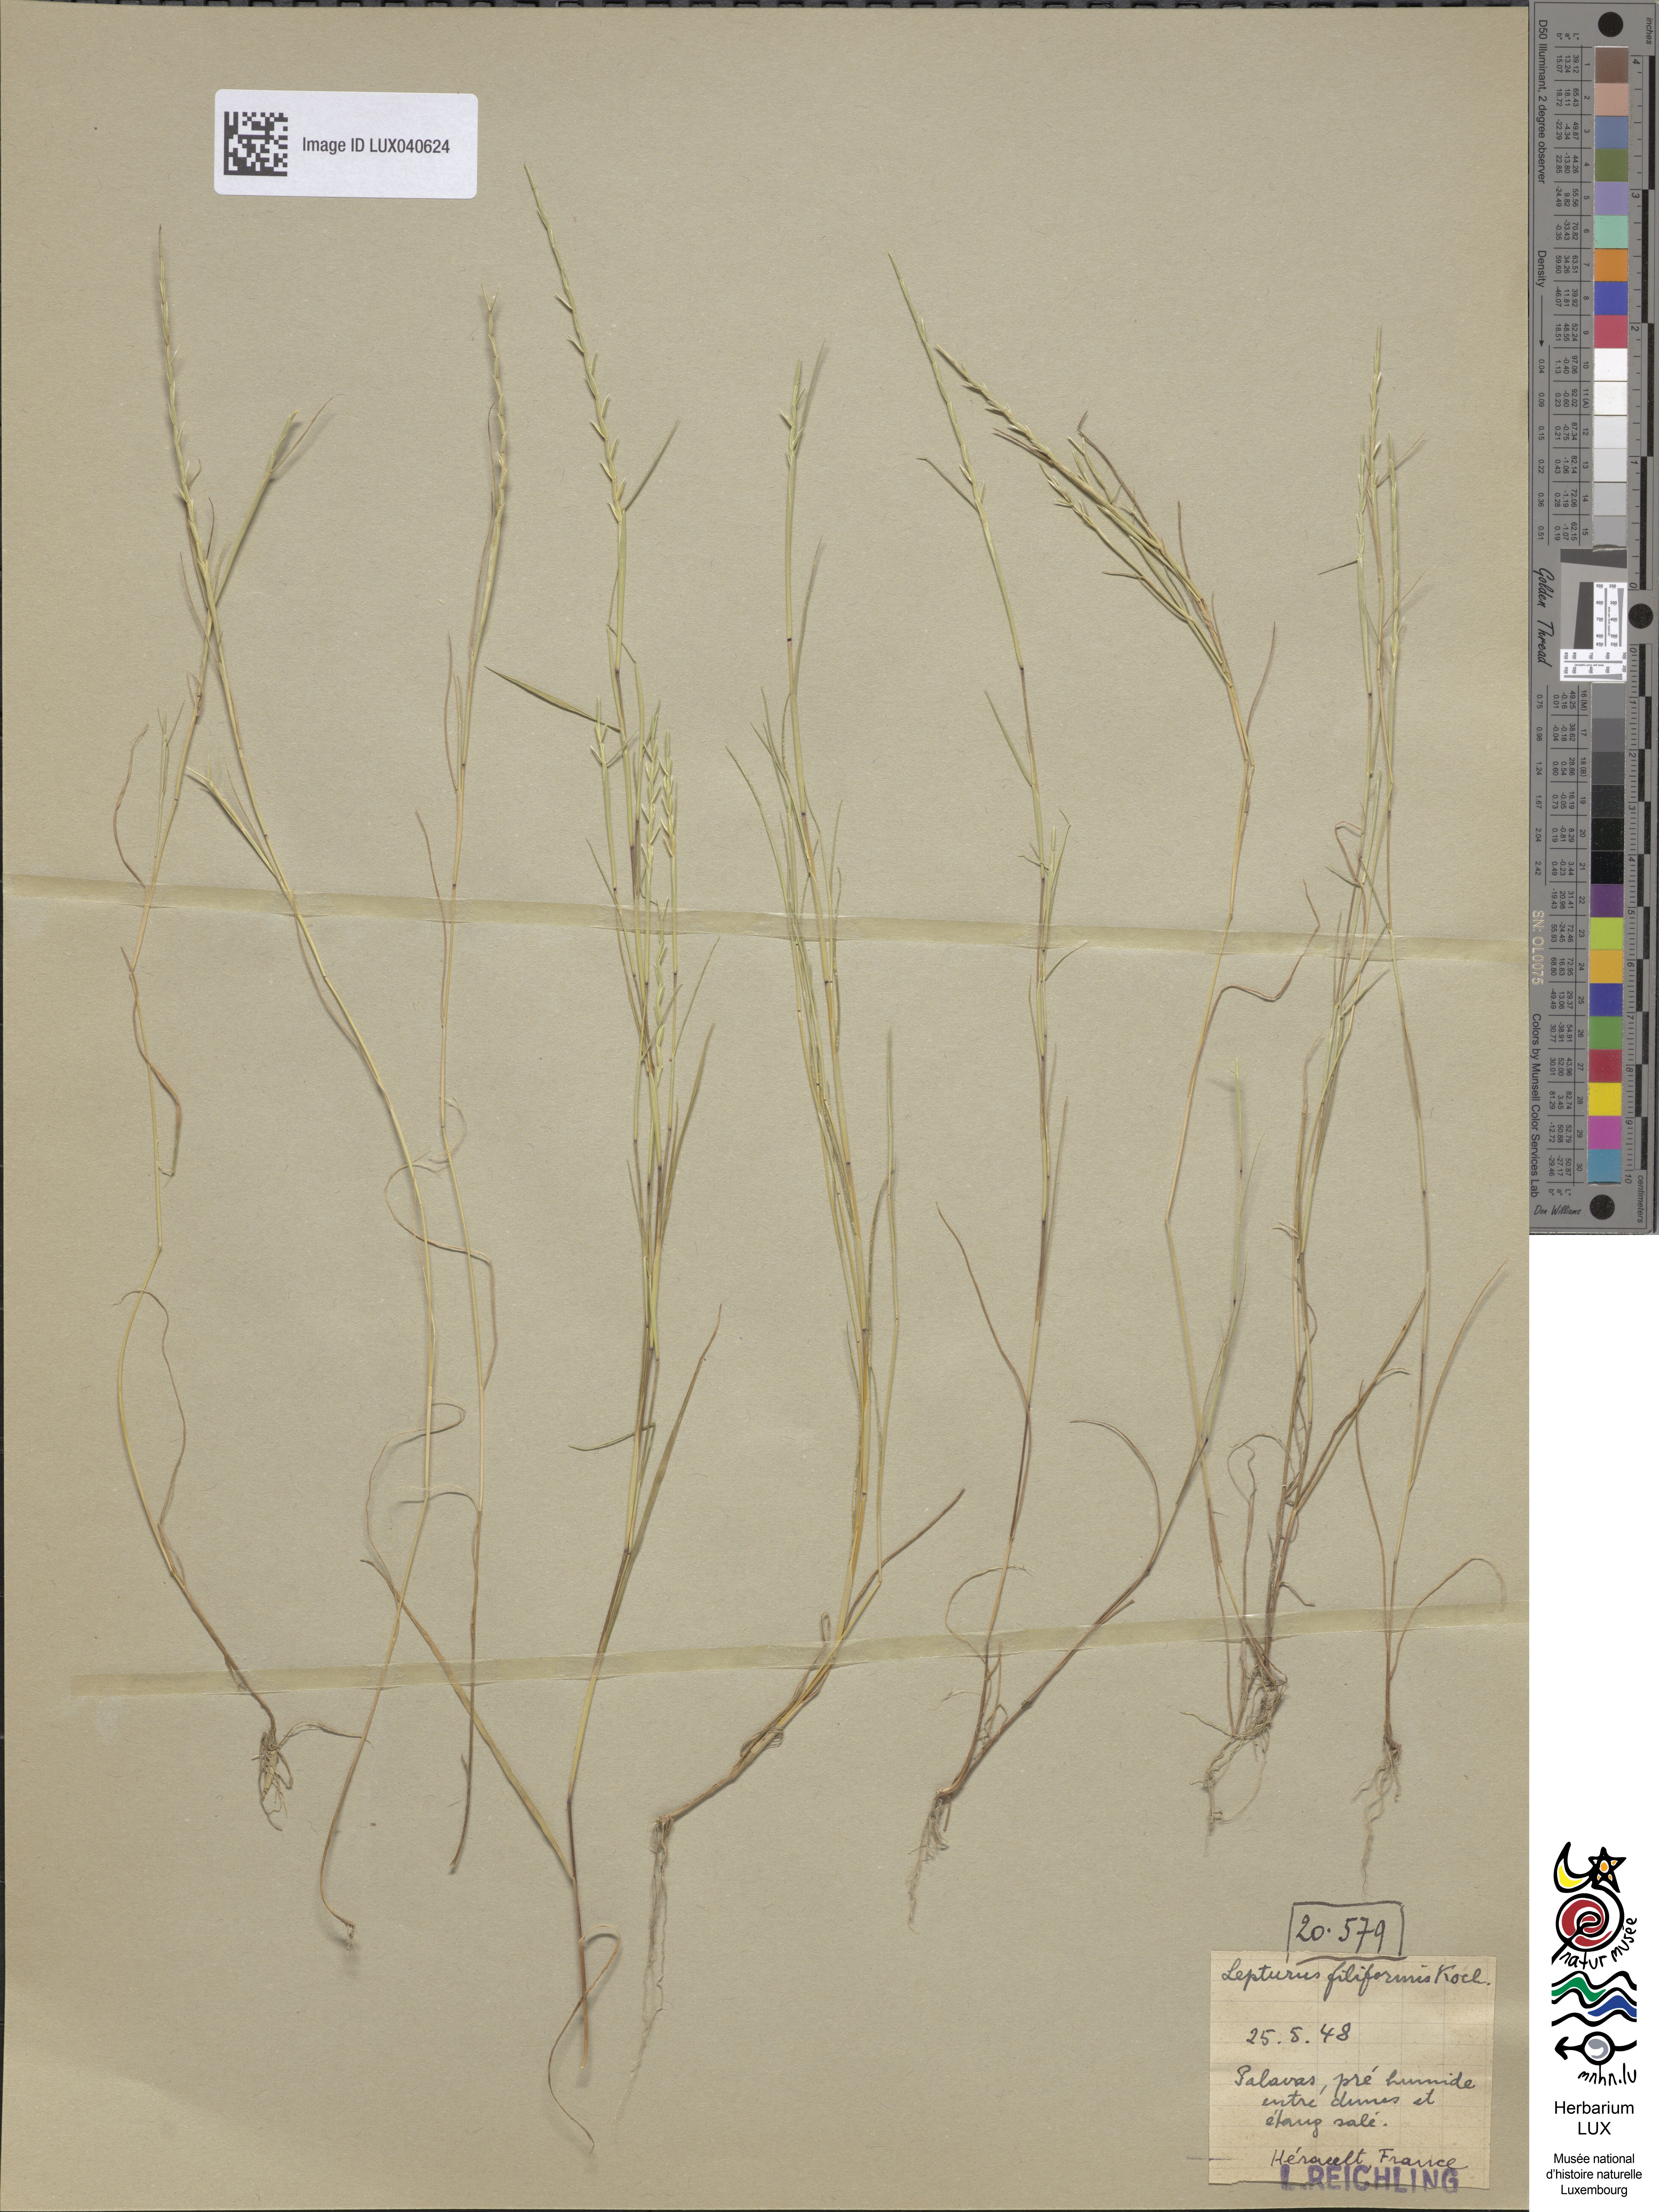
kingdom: Plantae
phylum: Tracheophyta
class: Liliopsida
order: Poales
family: Poaceae
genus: Parapholis
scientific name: Parapholis strigosa
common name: Hard-grass
